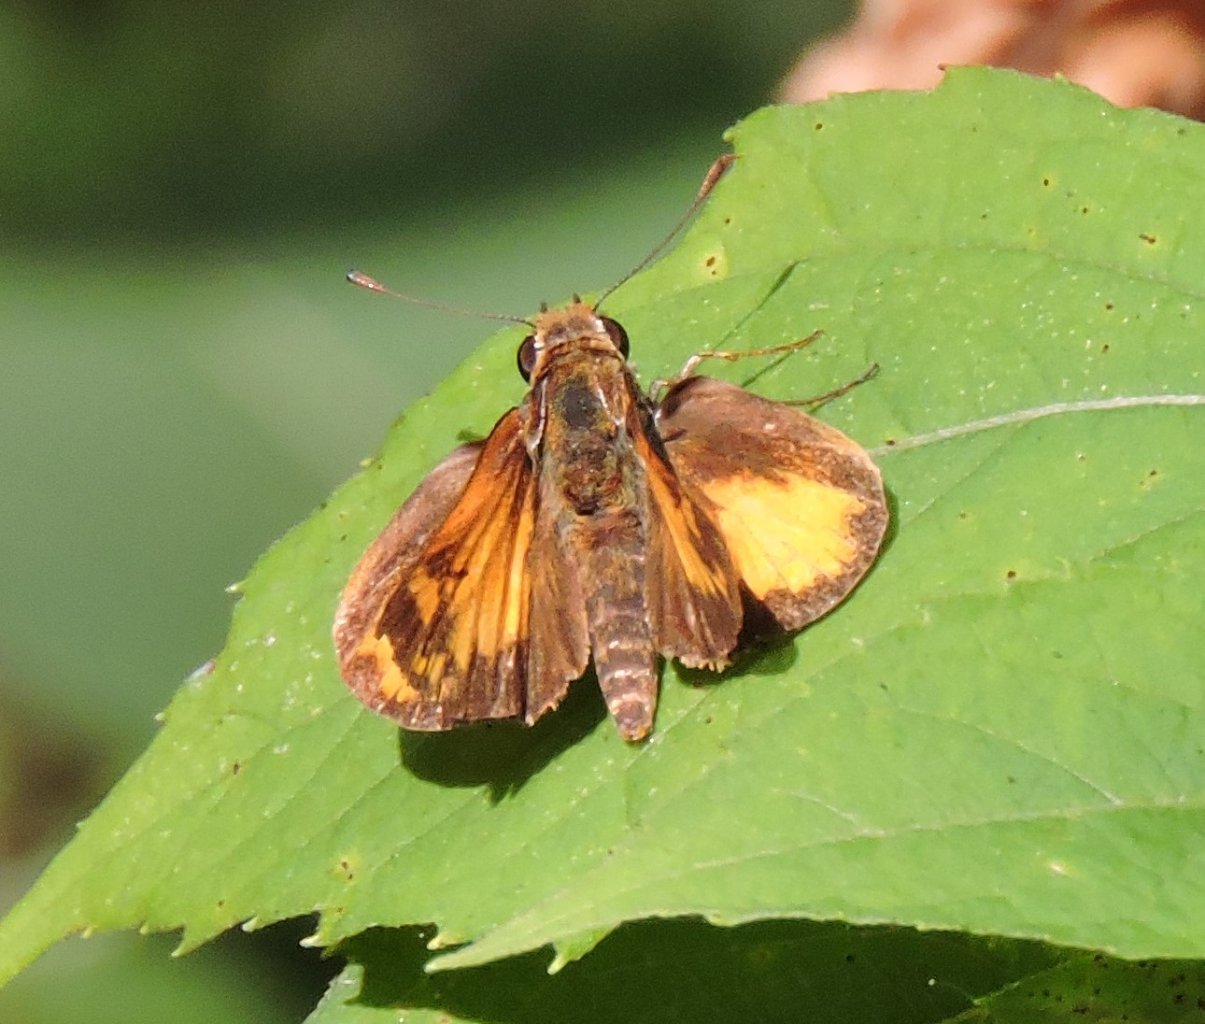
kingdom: Animalia
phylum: Arthropoda
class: Insecta
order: Lepidoptera
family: Hesperiidae
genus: Lon
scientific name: Lon zabulon
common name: Zabulon Skipper
